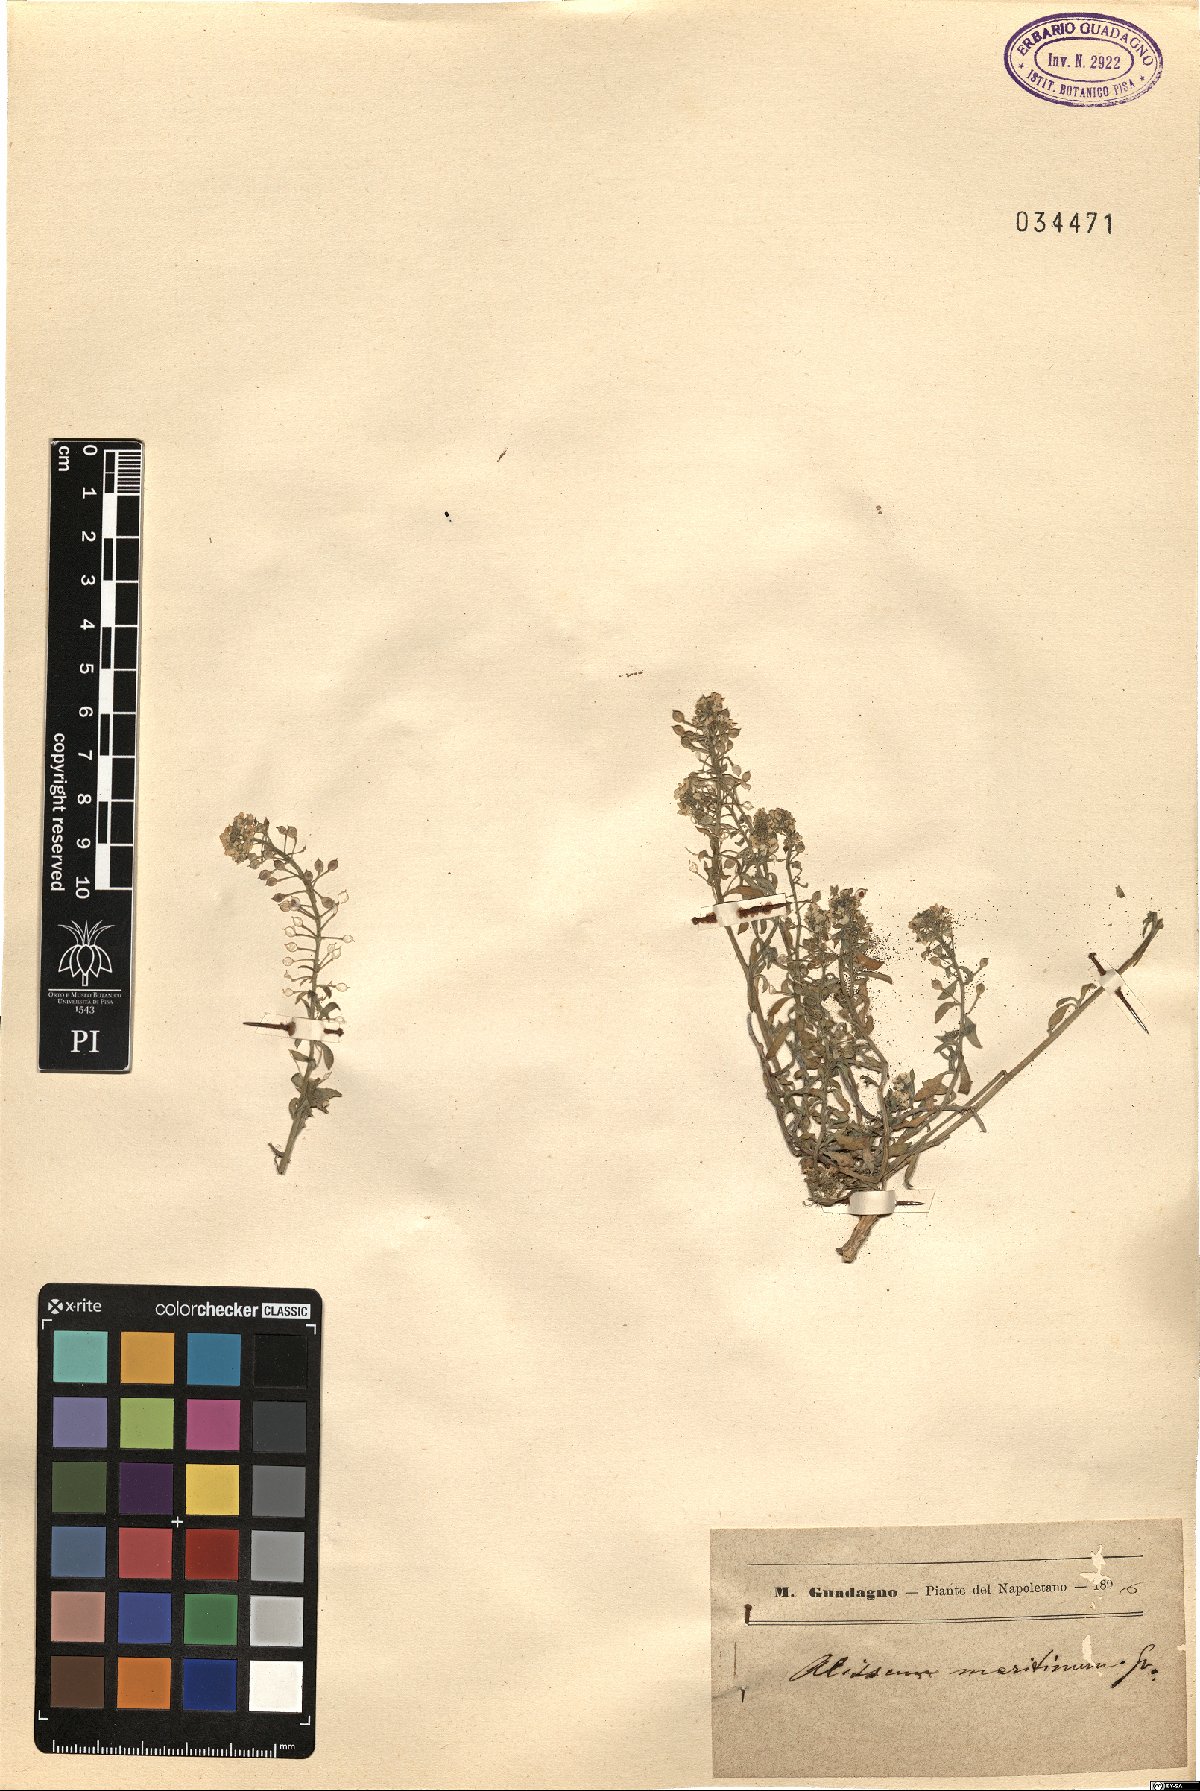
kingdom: Plantae
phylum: Tracheophyta
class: Magnoliopsida
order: Brassicales
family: Brassicaceae
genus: Lobularia
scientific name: Lobularia maritima
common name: Sweet alison
